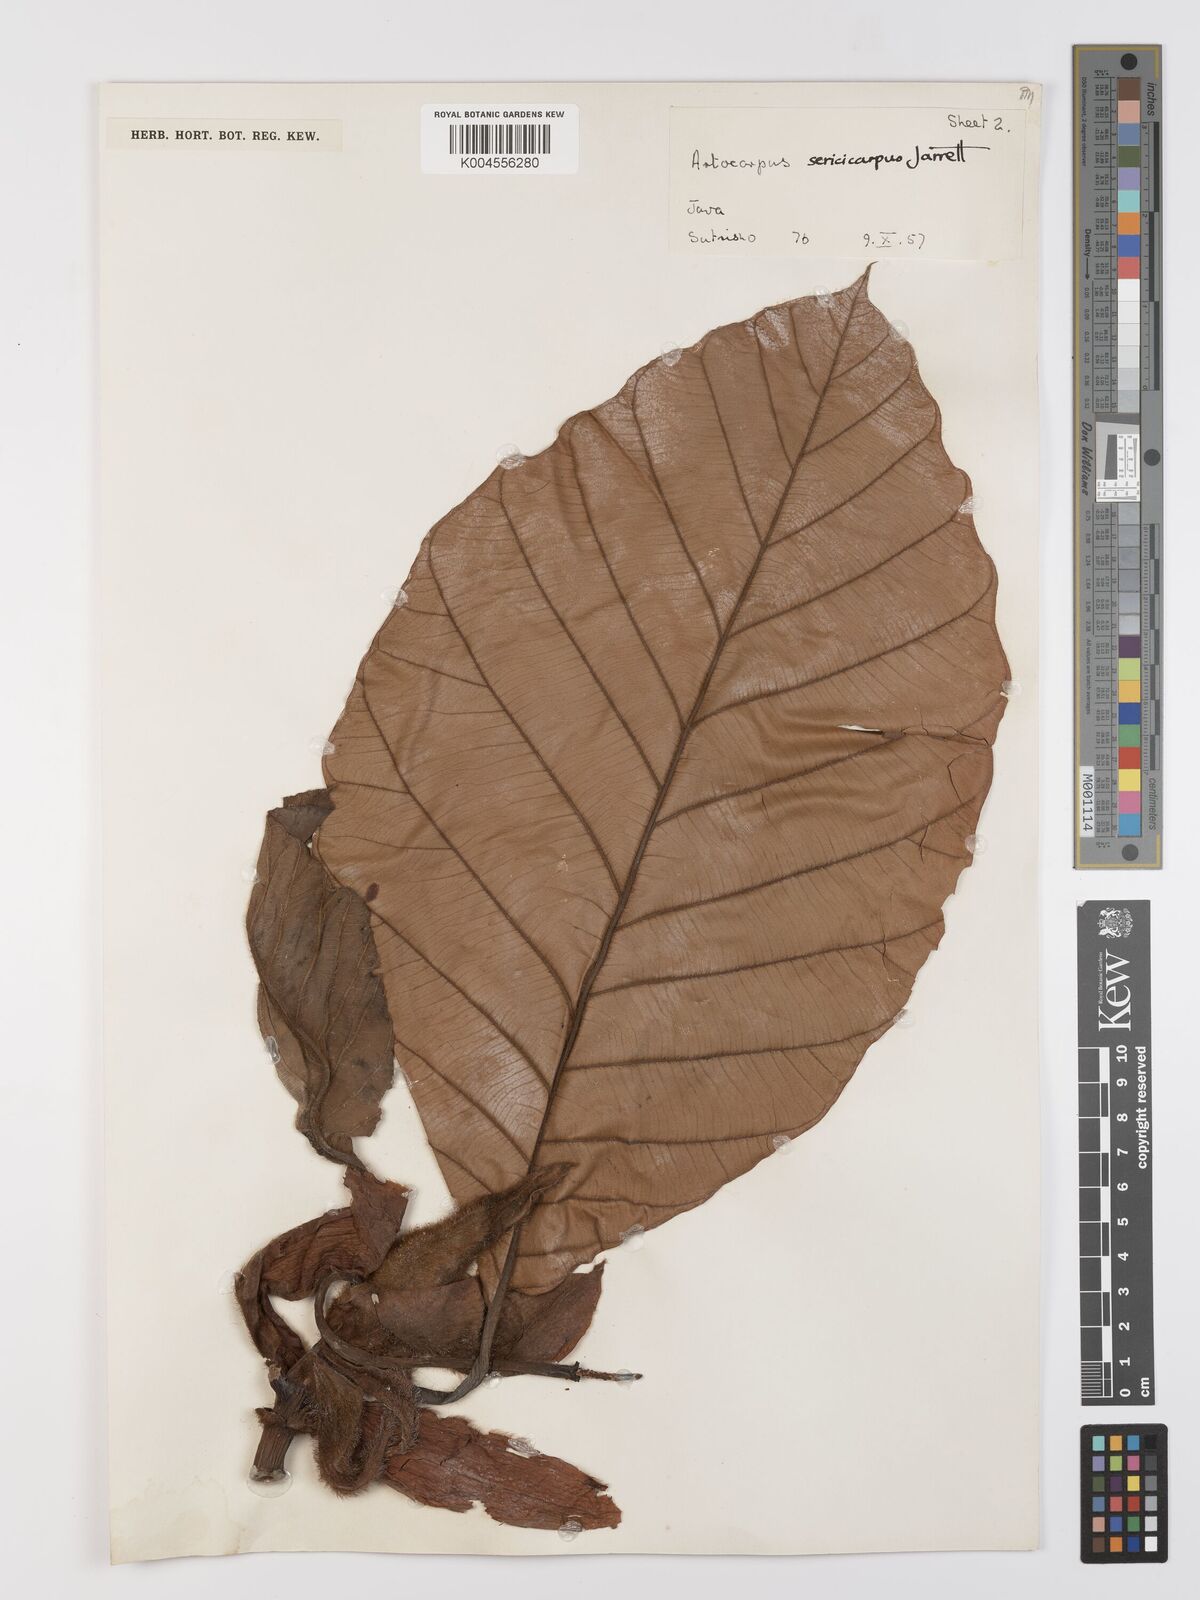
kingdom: Plantae
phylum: Tracheophyta
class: Magnoliopsida
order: Rosales
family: Moraceae
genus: Artocarpus
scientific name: Artocarpus sericicarpus
